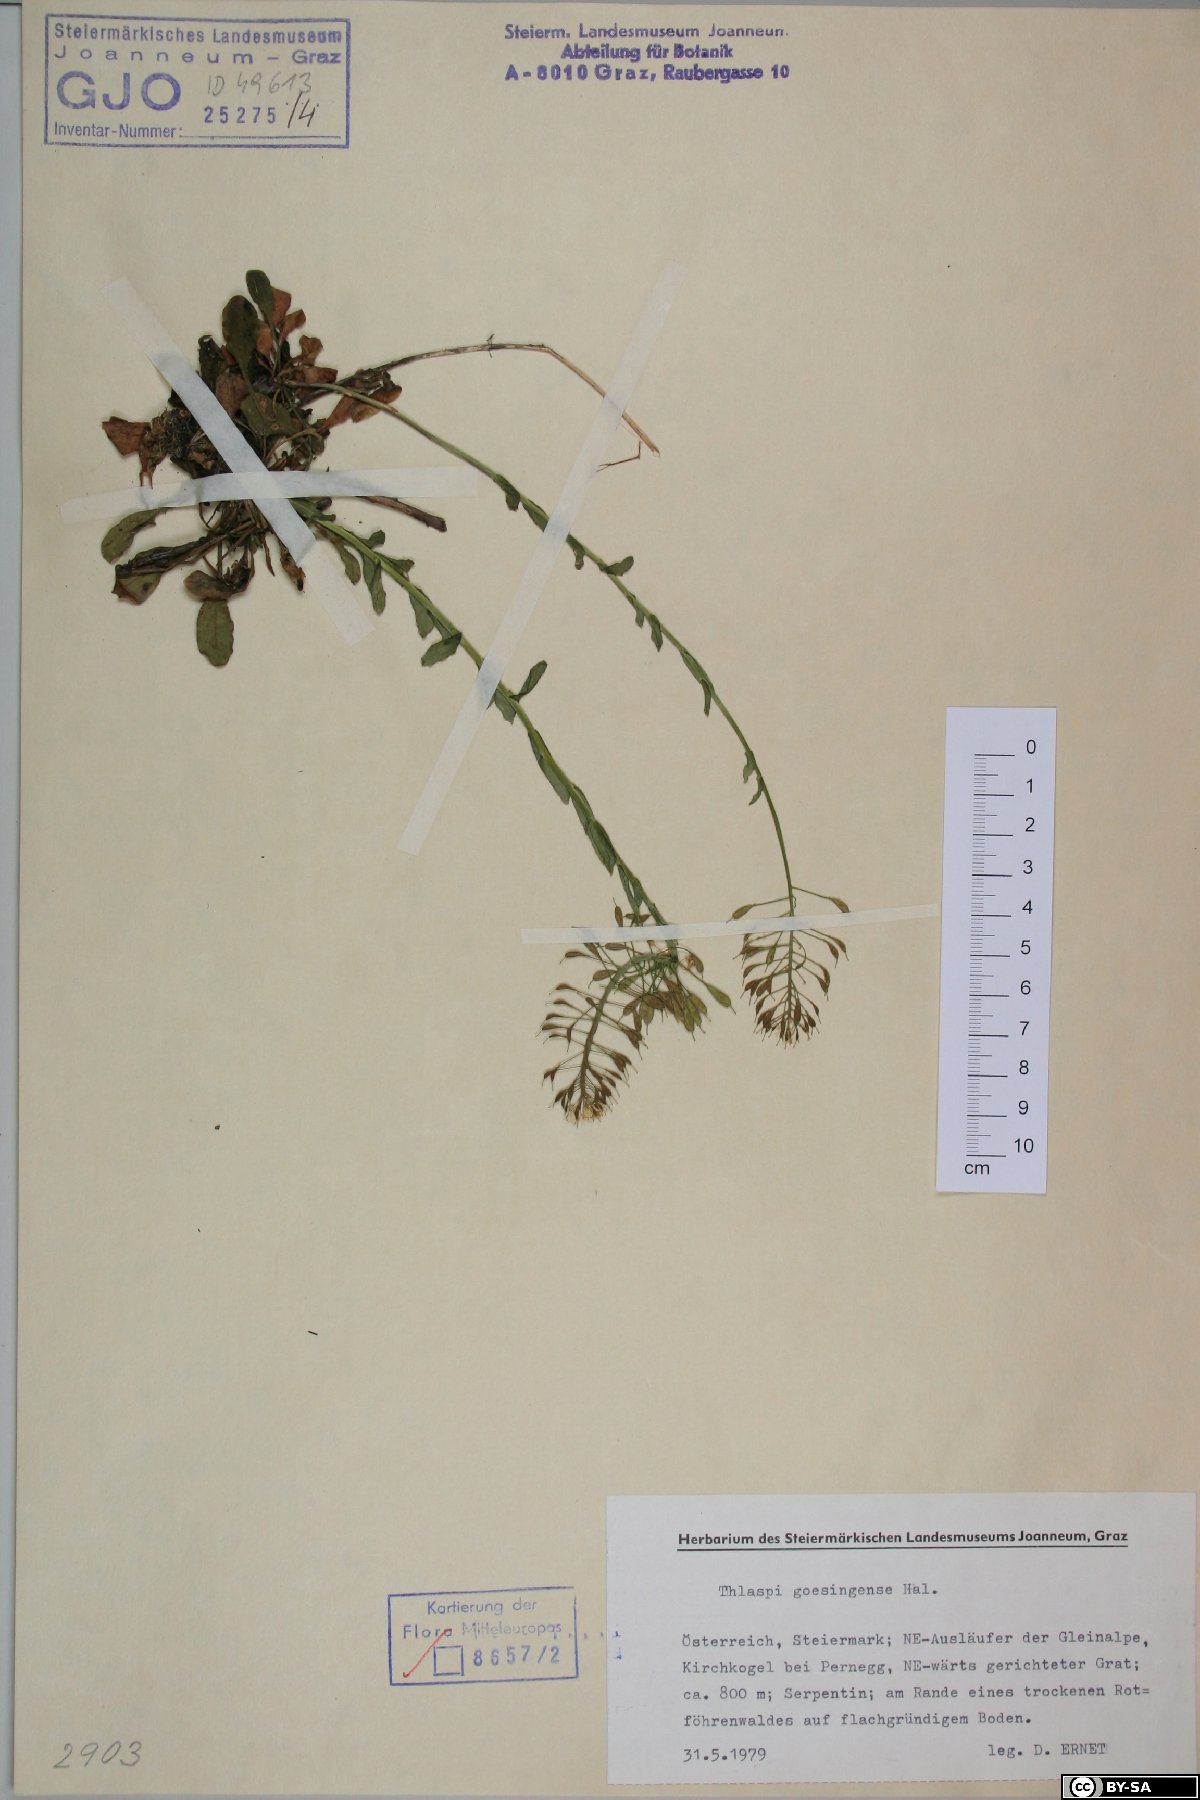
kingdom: Plantae
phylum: Tracheophyta
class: Magnoliopsida
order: Brassicales
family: Brassicaceae
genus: Noccaea
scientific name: Noccaea goesingensis
